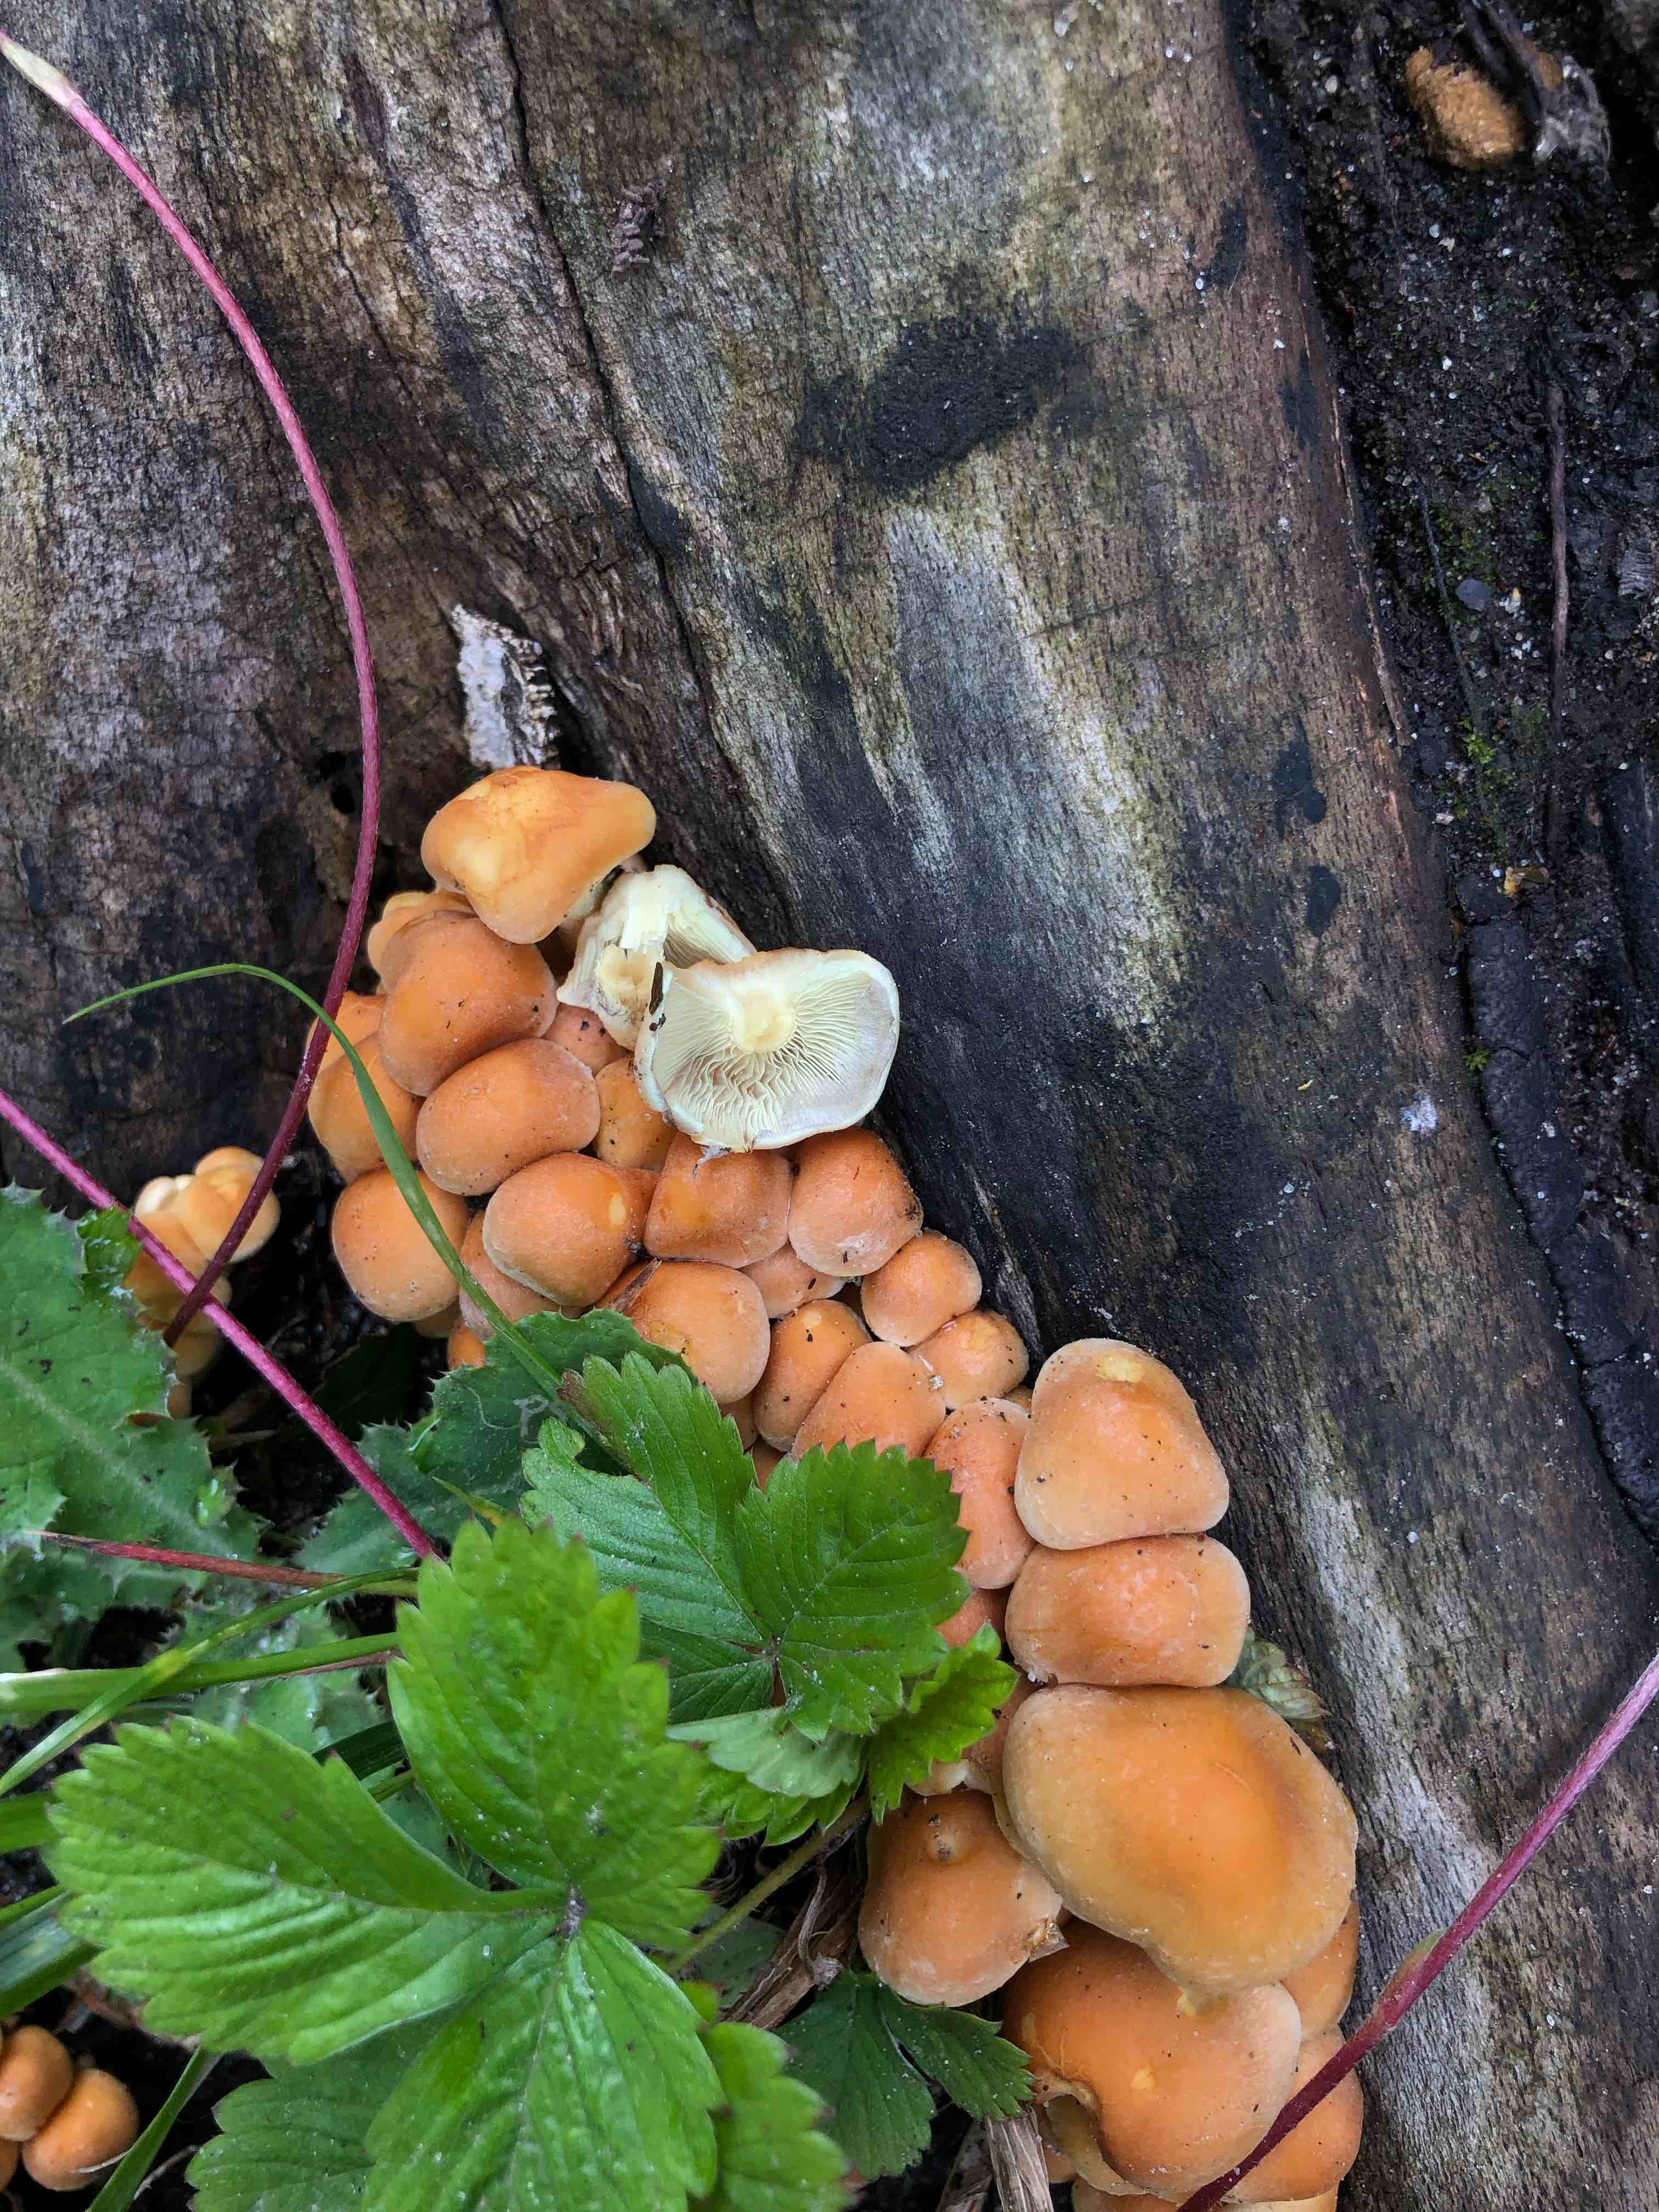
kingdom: Fungi
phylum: Basidiomycota
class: Agaricomycetes
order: Agaricales
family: Strophariaceae
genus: Hypholoma
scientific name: Hypholoma fasciculare
